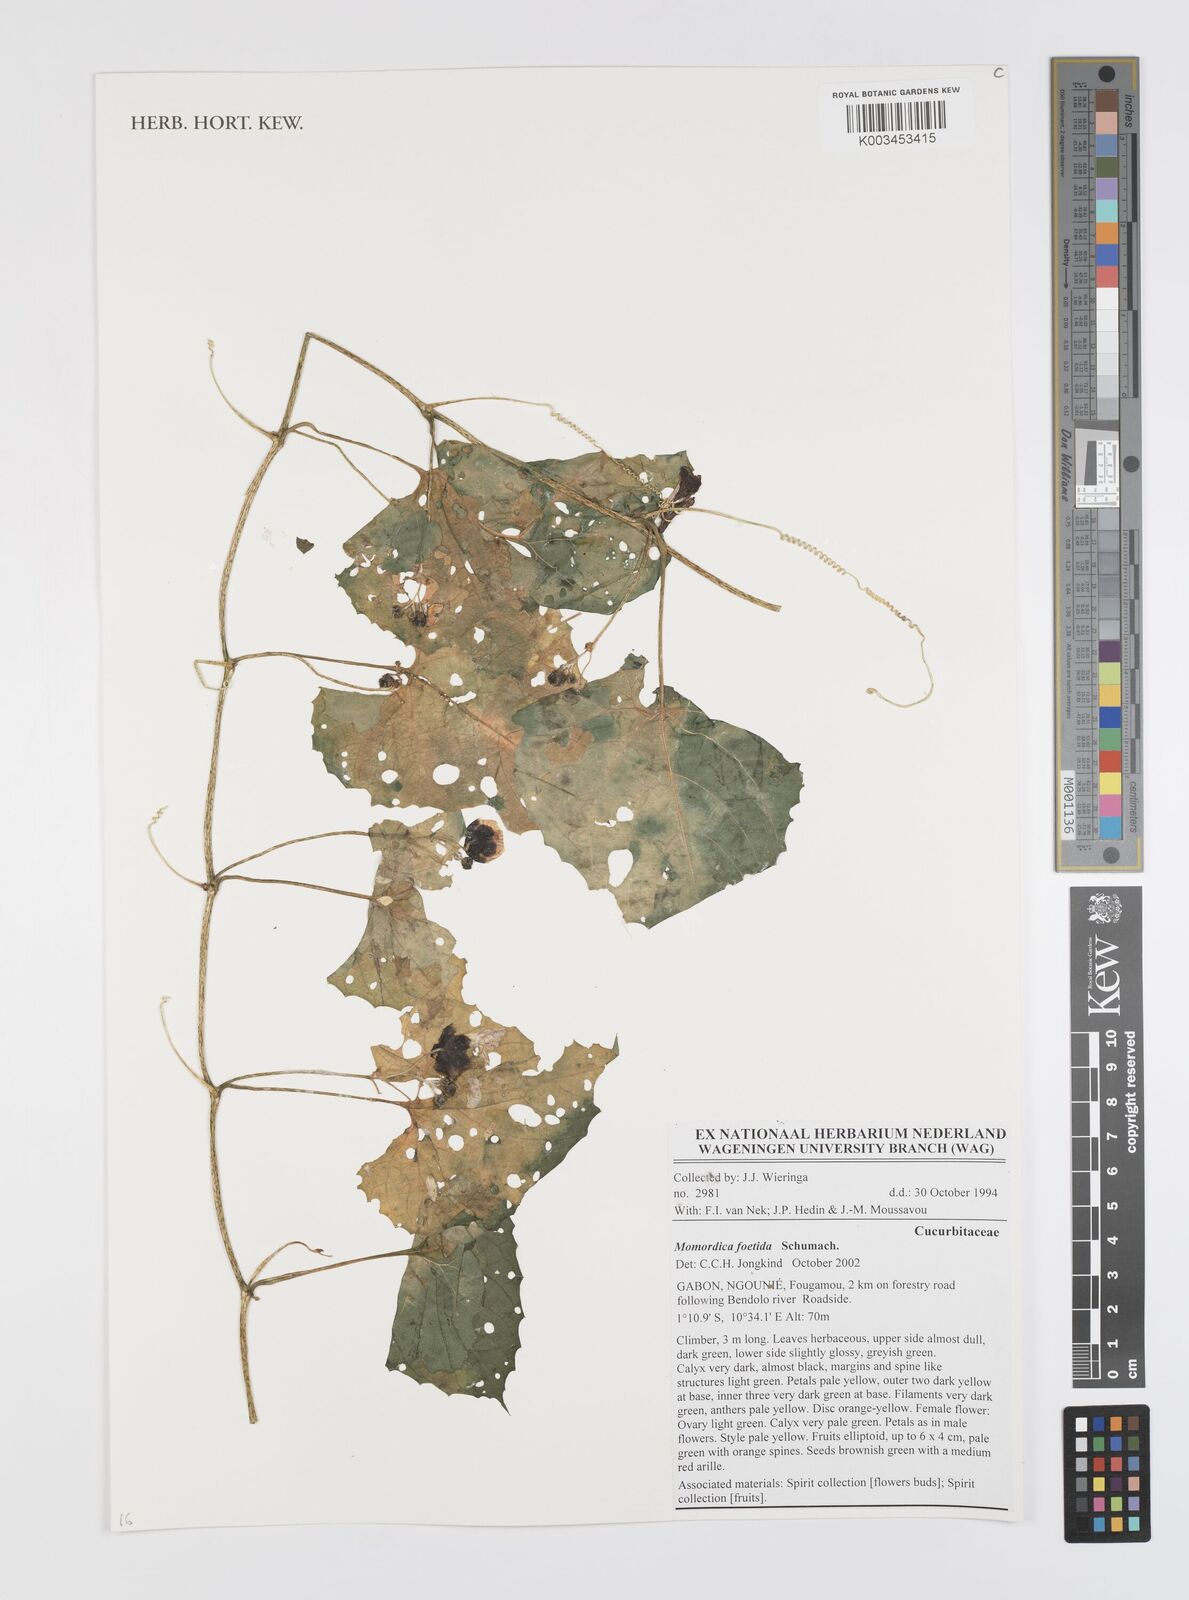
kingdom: Plantae
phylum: Tracheophyta
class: Magnoliopsida
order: Cucurbitales
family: Cucurbitaceae
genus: Momordica
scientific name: Momordica foetida
